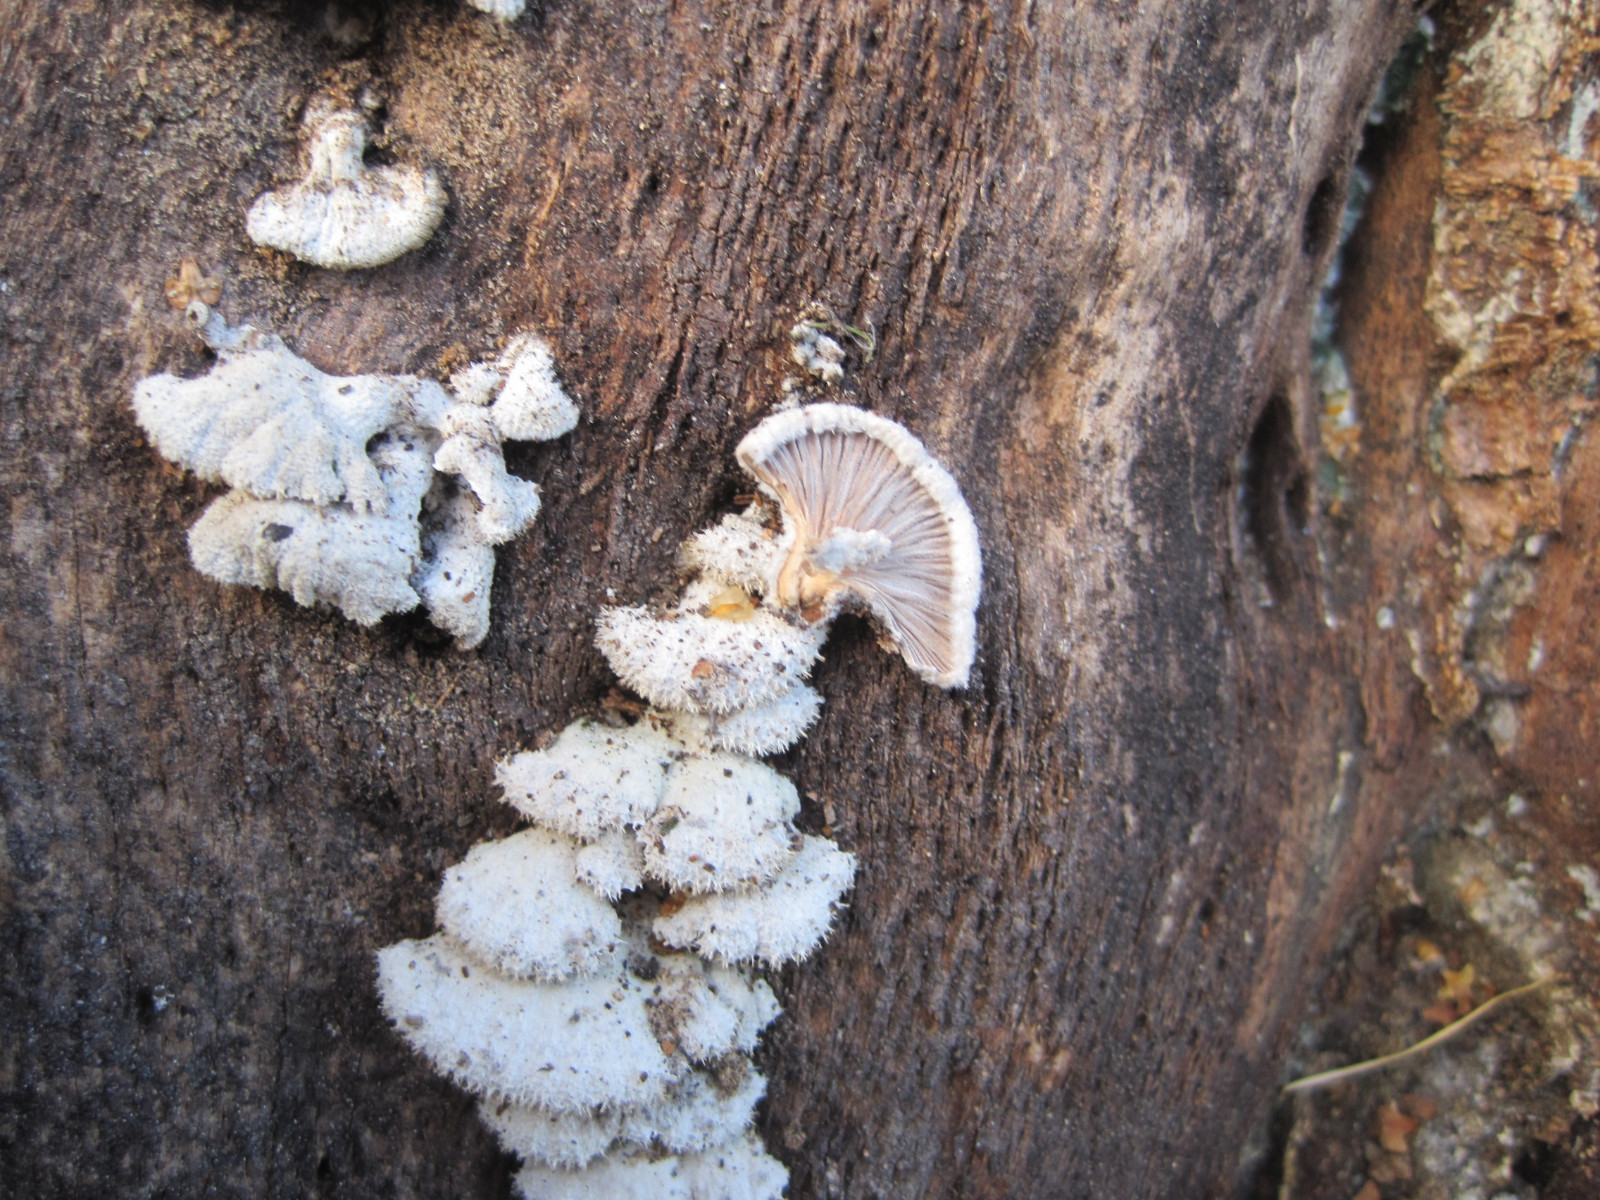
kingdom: Fungi
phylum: Basidiomycota
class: Agaricomycetes
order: Agaricales
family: Schizophyllaceae
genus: Schizophyllum
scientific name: Schizophyllum commune
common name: kløvblad
